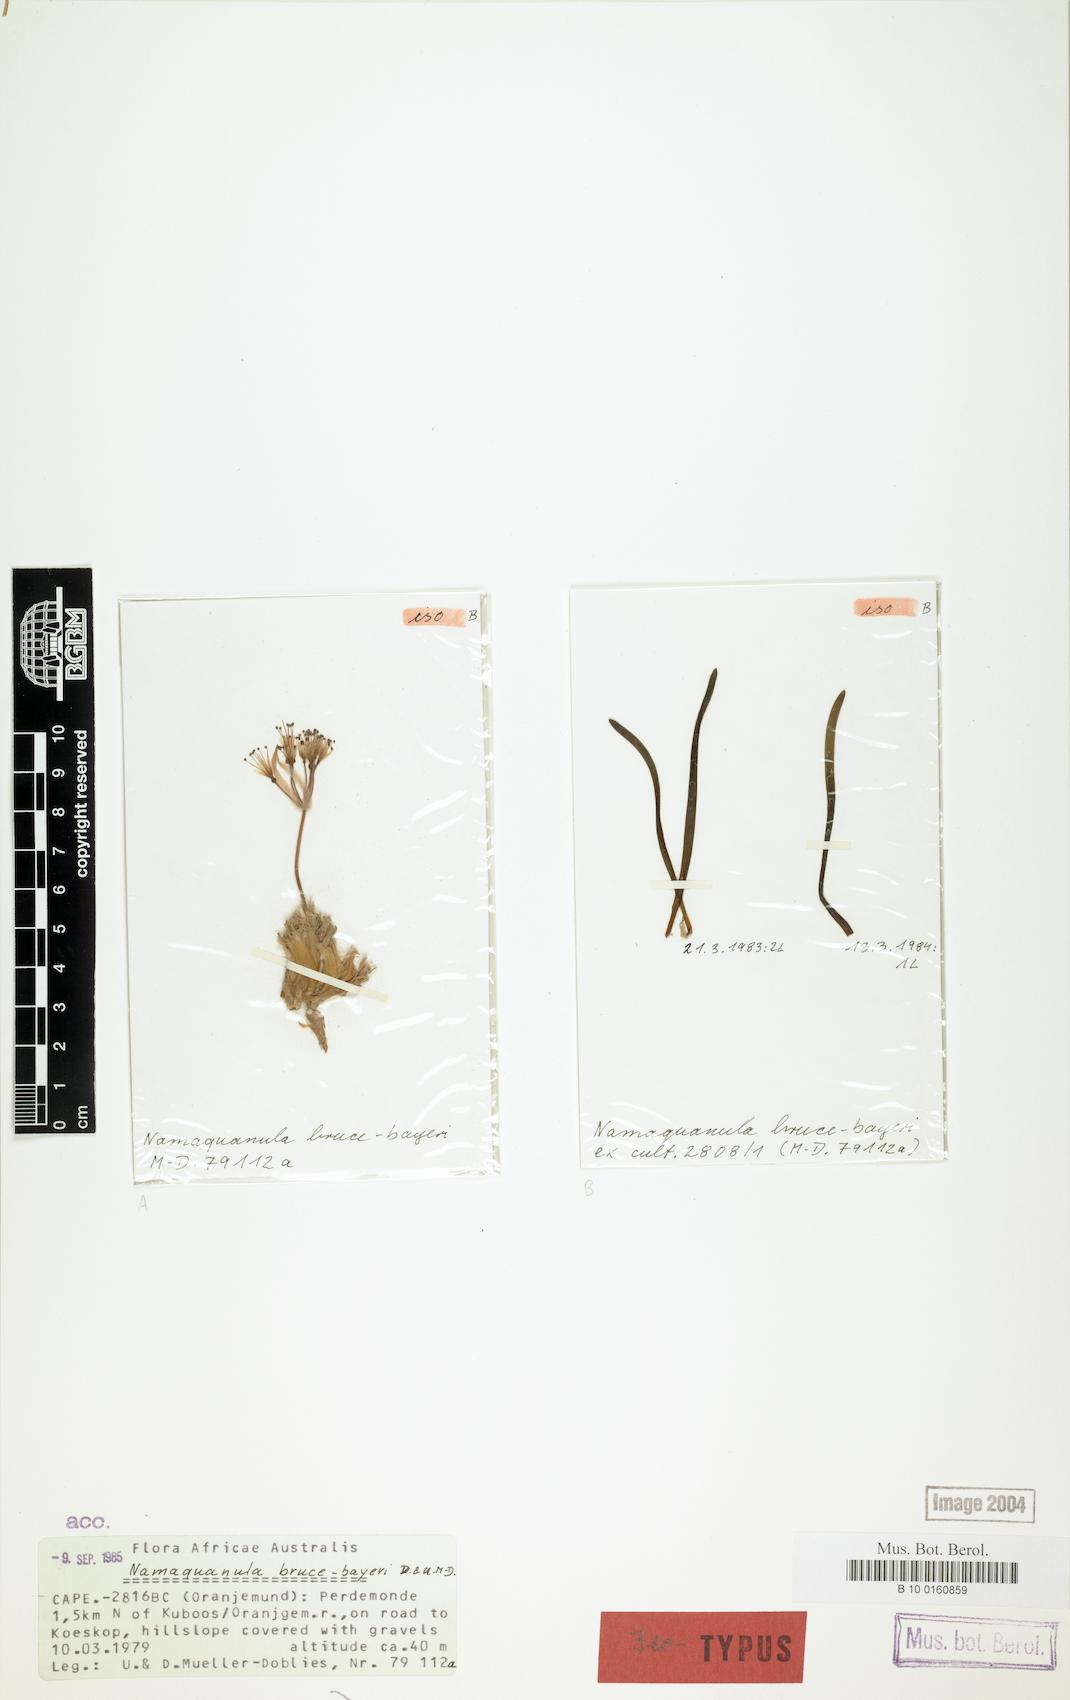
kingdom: Plantae
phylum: Tracheophyta
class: Liliopsida
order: Asparagales
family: Amaryllidaceae
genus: Namaquanula
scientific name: Namaquanula bruce-bayeri
